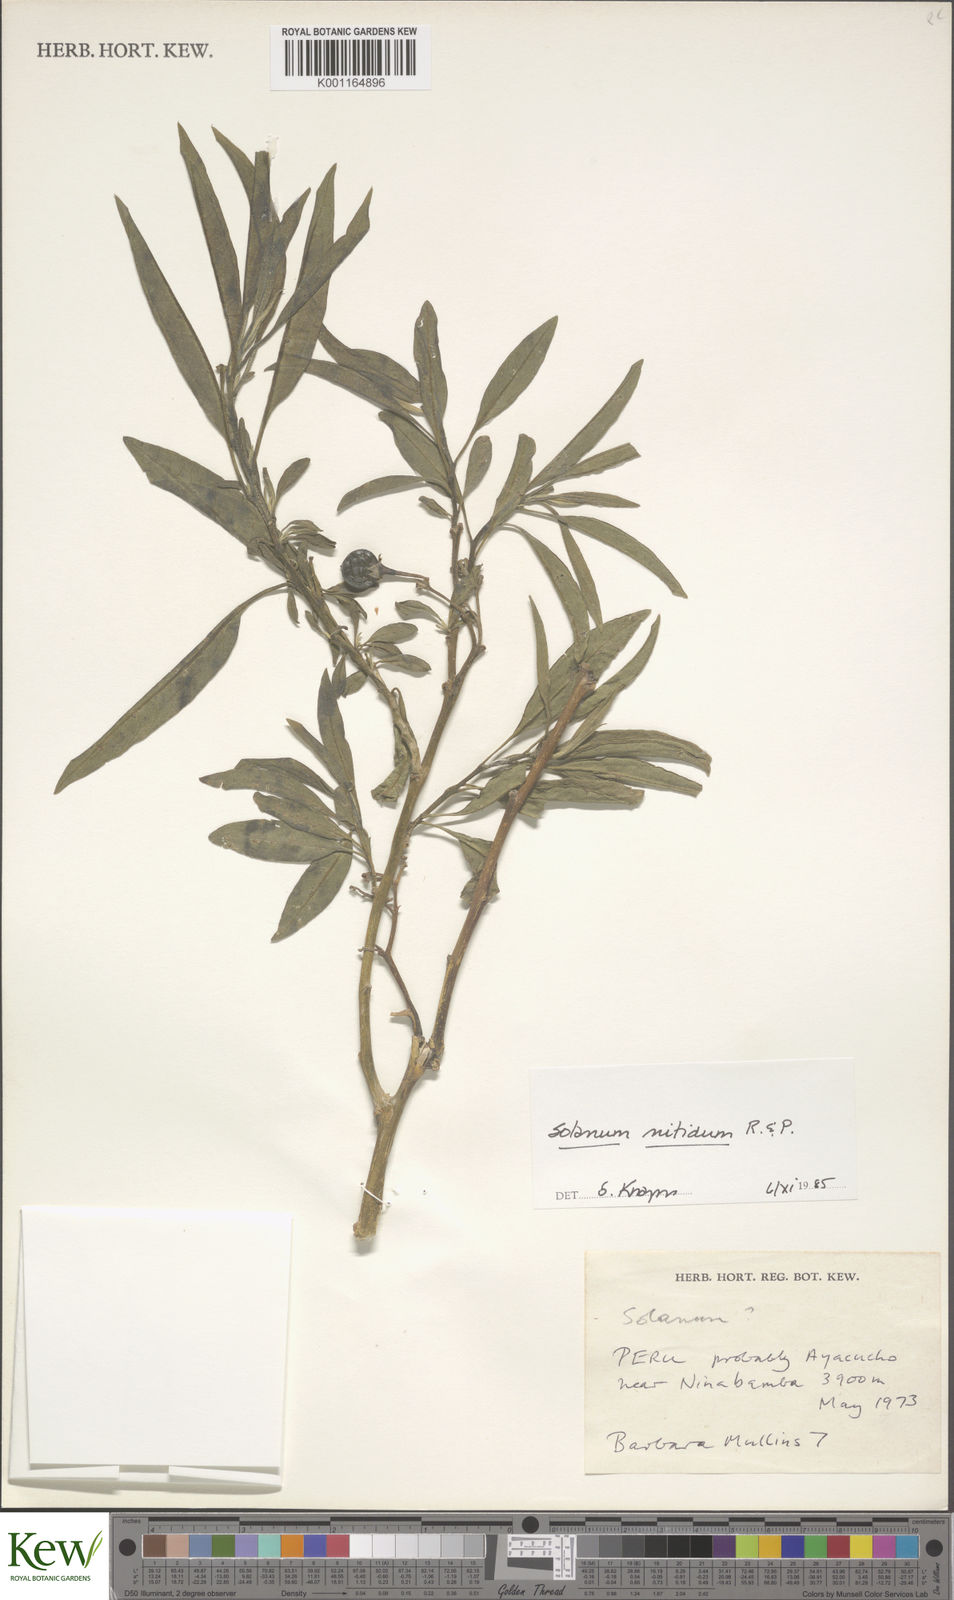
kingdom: Plantae
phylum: Tracheophyta
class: Magnoliopsida
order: Solanales
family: Solanaceae
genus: Solanum
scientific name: Solanum nitidum
